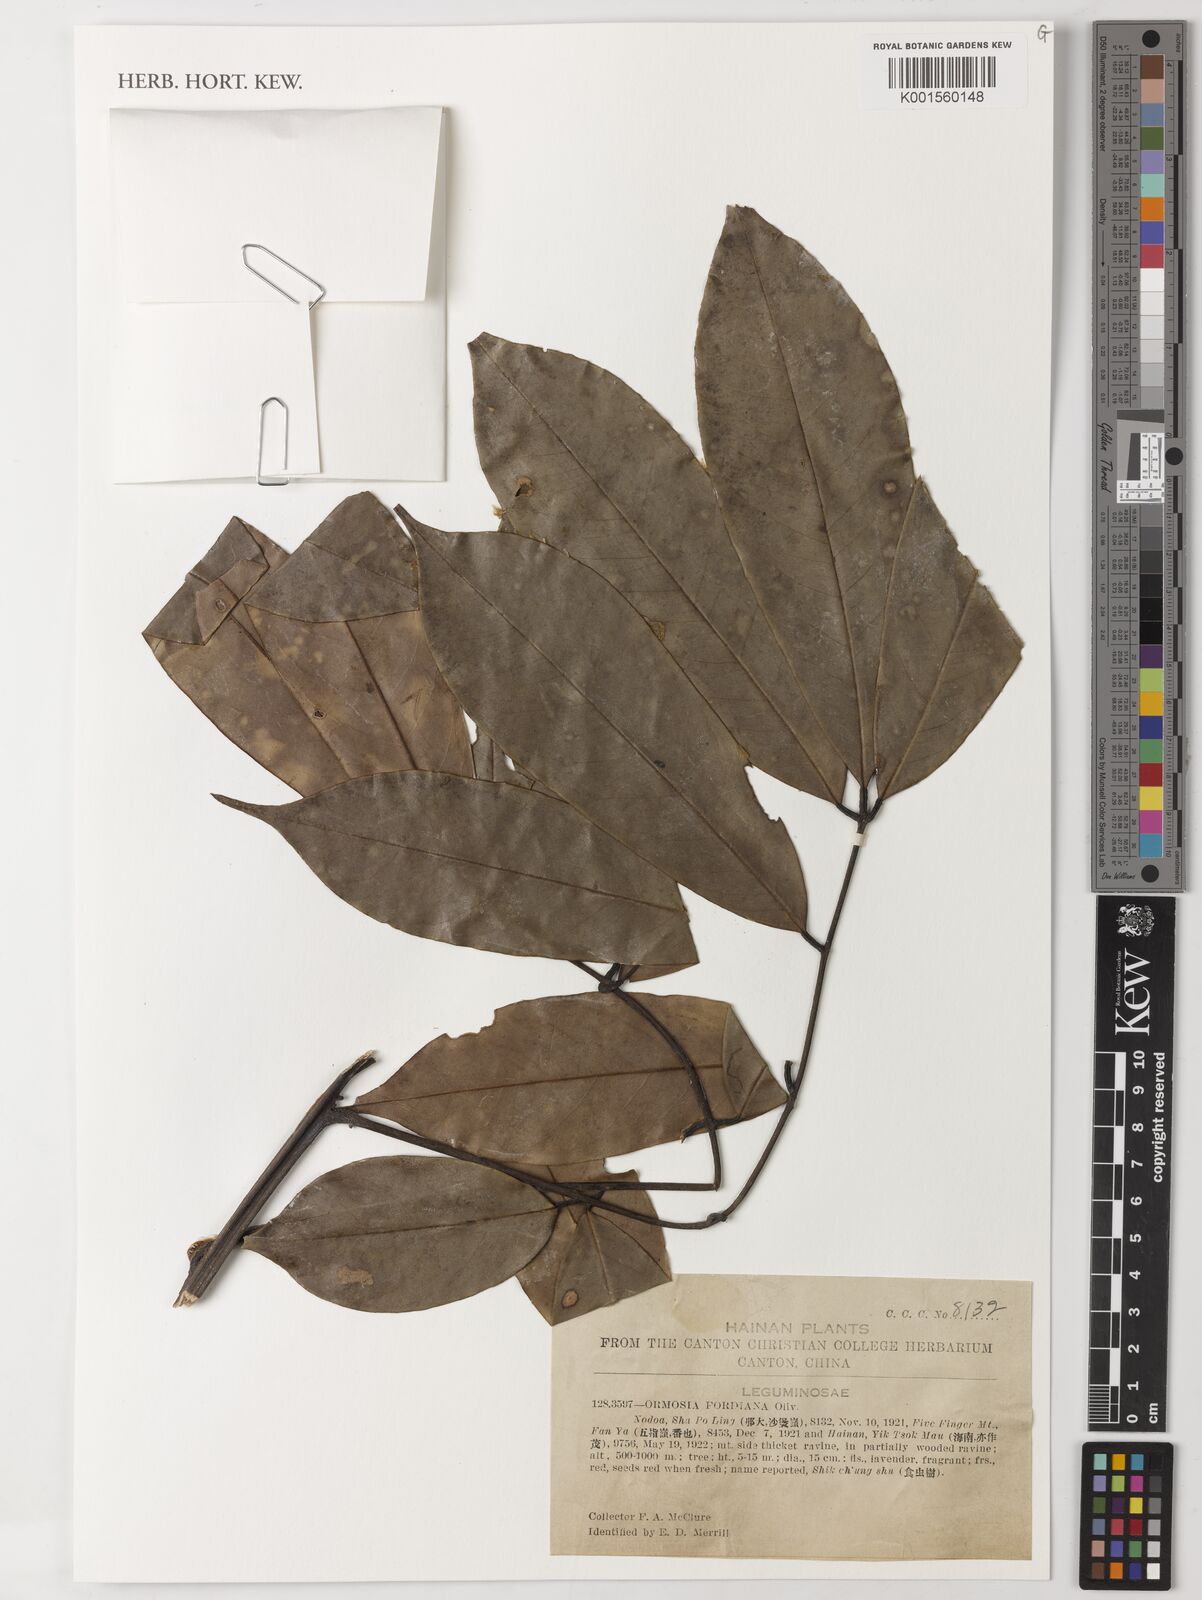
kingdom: Plantae
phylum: Tracheophyta
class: Magnoliopsida
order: Fabales
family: Fabaceae
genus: Ormosia
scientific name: Ormosia fordiana
